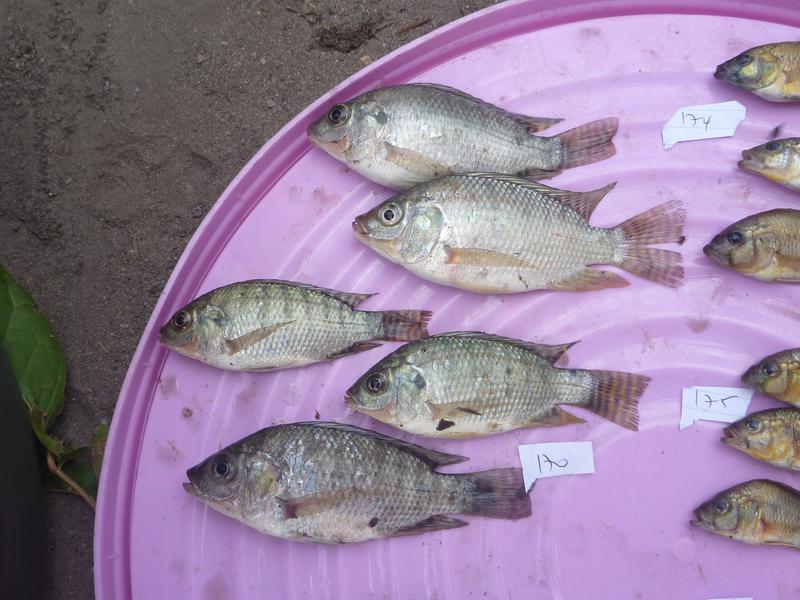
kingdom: Animalia
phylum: Chordata
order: Perciformes
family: Cichlidae
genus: Oreochromis
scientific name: Oreochromis niloticus
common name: Nile tilapia
